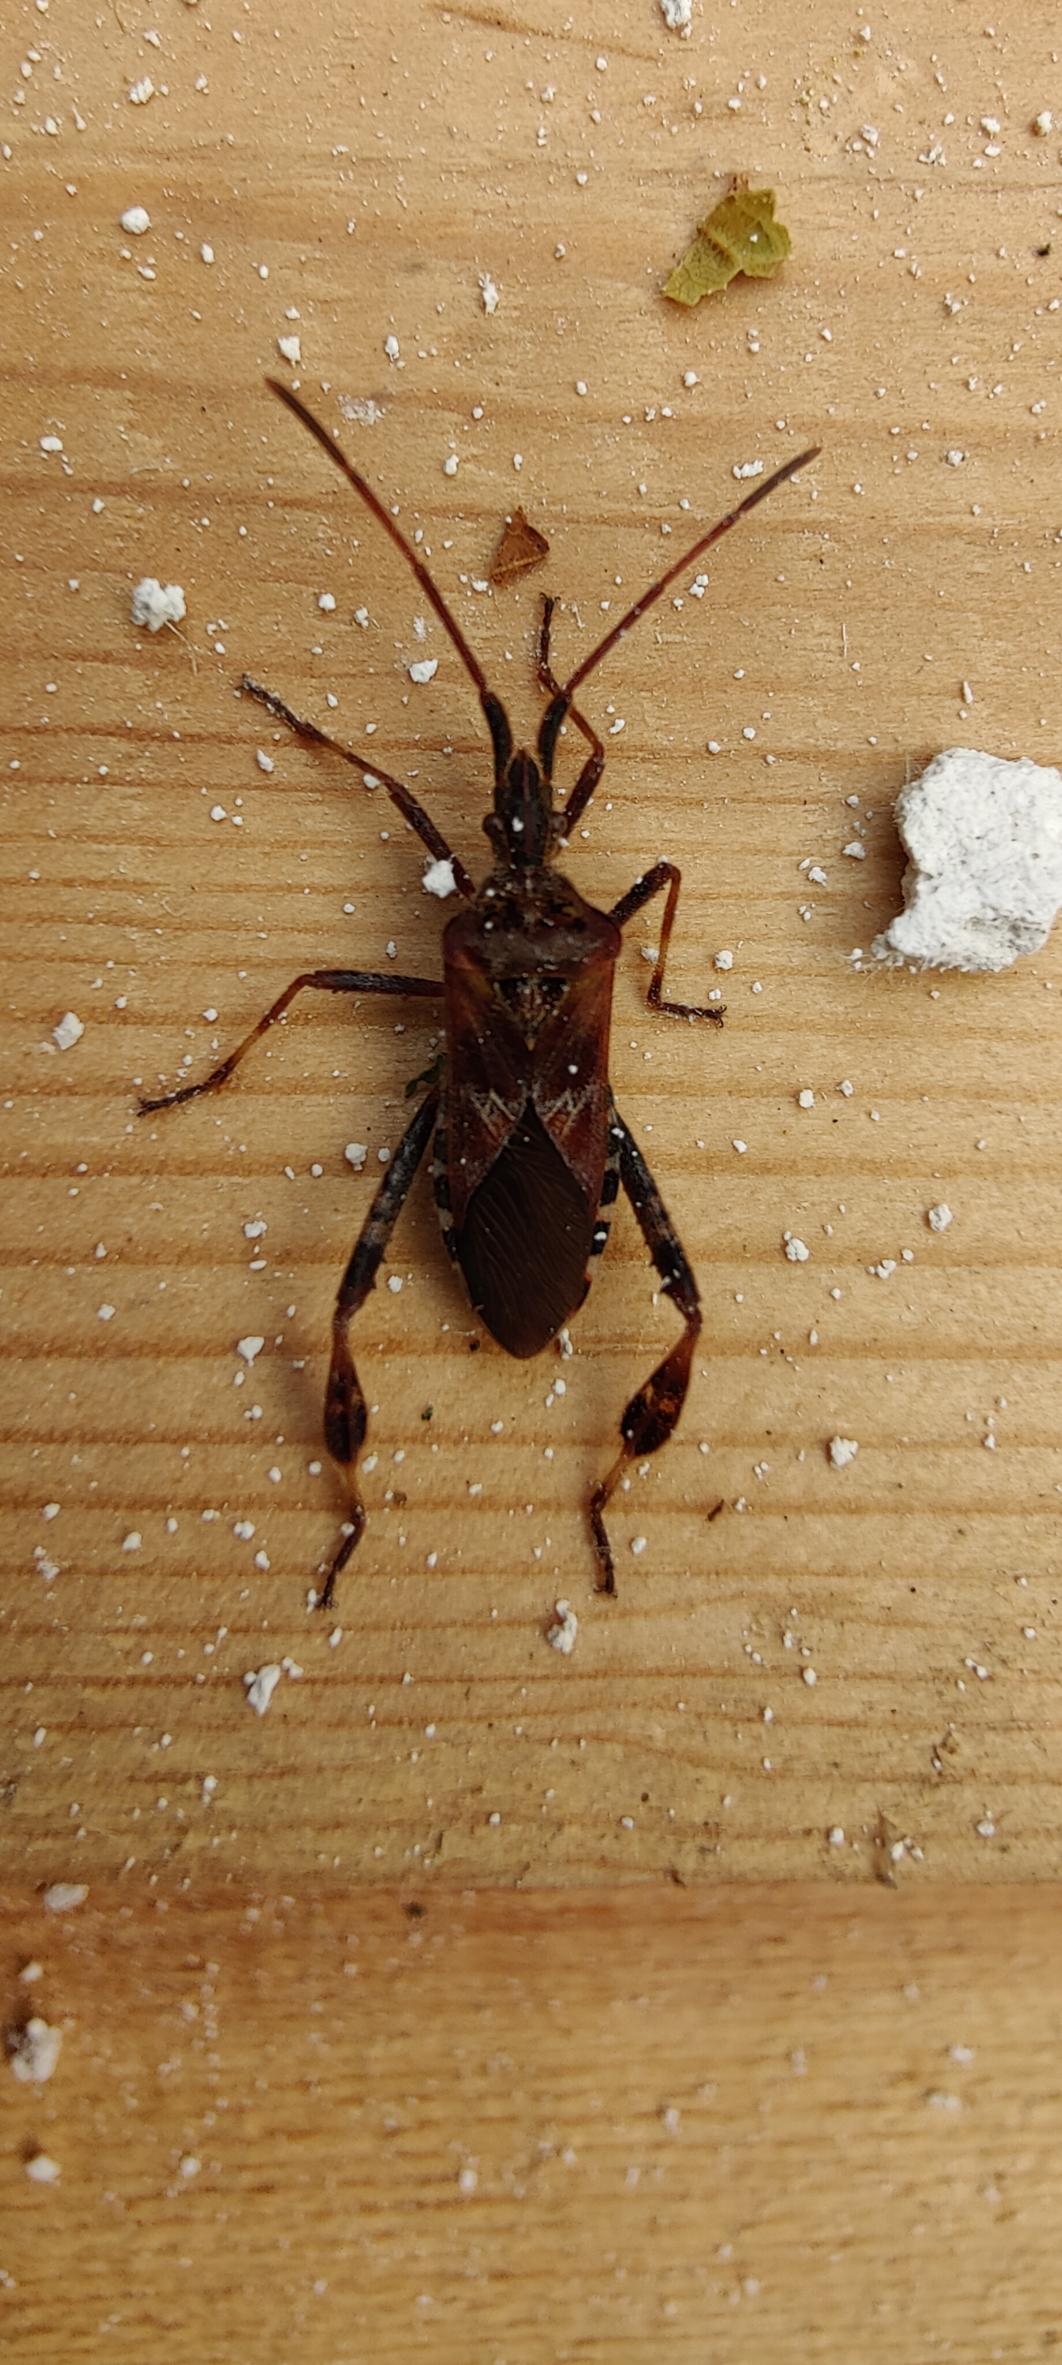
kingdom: Animalia
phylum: Arthropoda
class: Insecta
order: Hemiptera
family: Coreidae
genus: Leptoglossus
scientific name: Leptoglossus occidentalis
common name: Amerikansk fyrretæge
